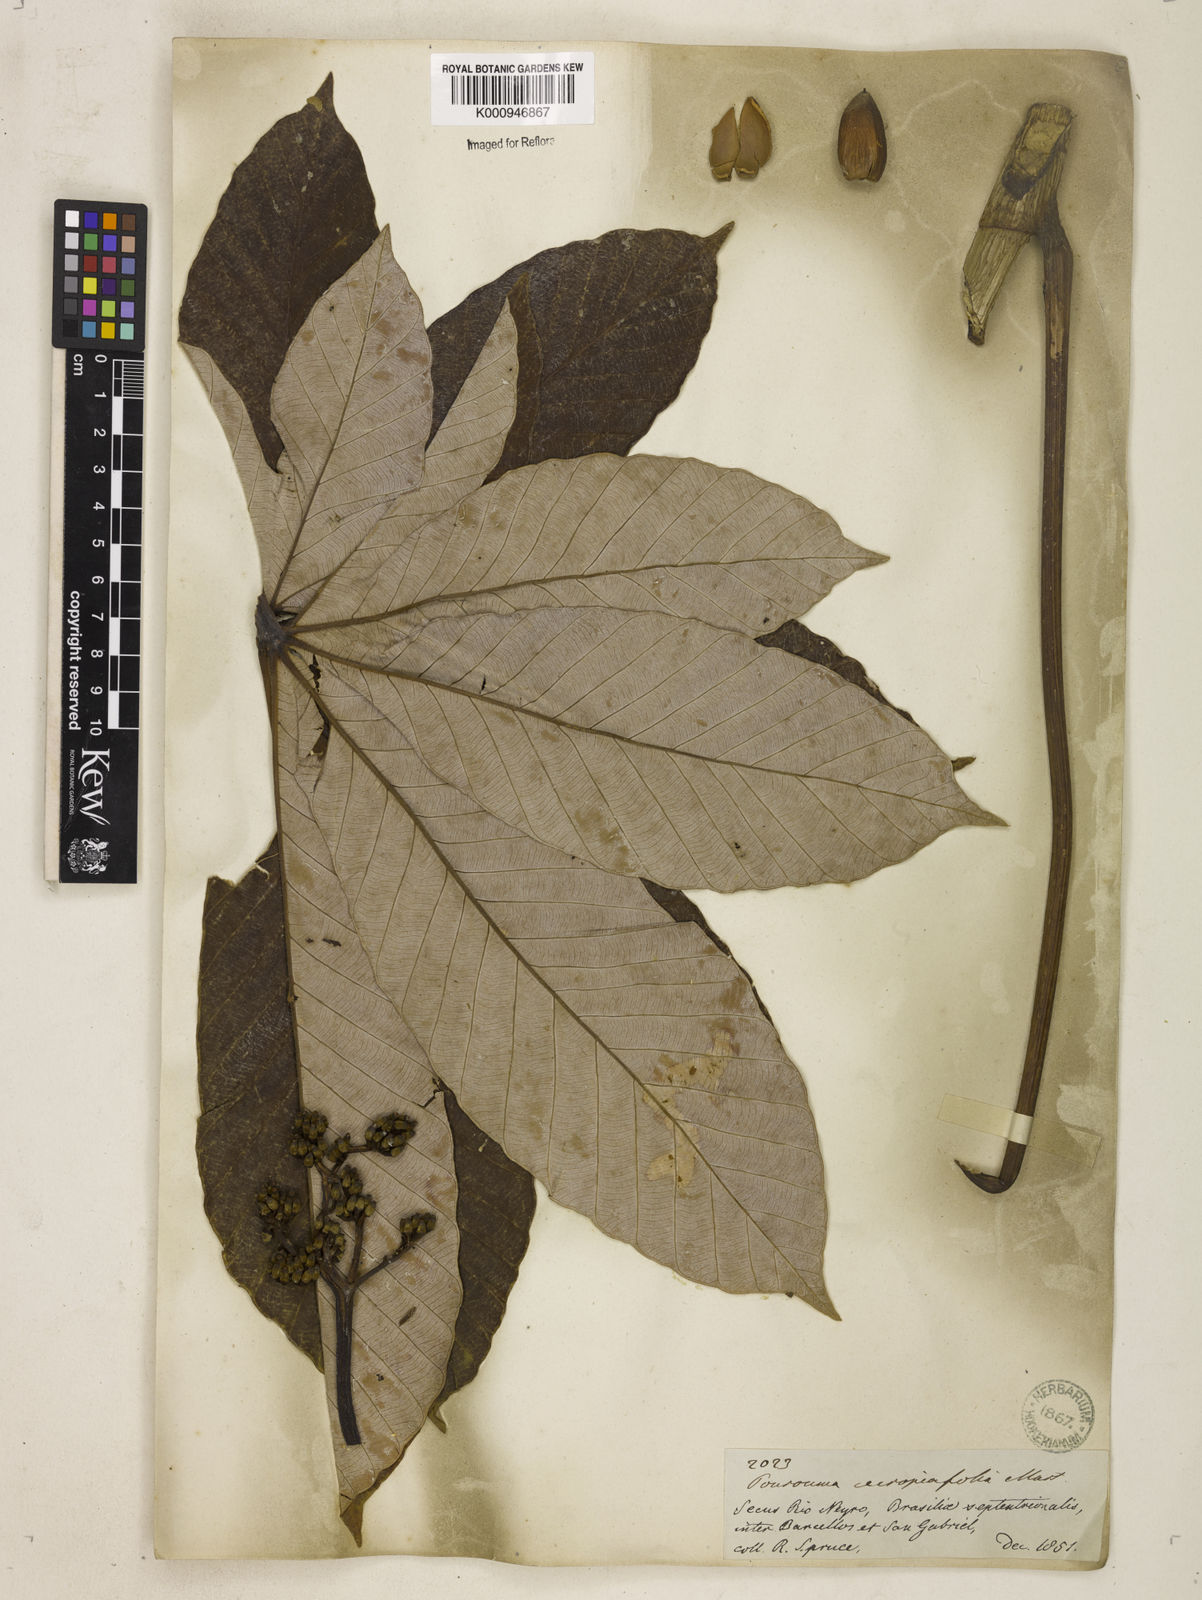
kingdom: Plantae
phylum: Tracheophyta
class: Magnoliopsida
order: Rosales
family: Urticaceae
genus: Pourouma
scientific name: Pourouma cecropiifolia
